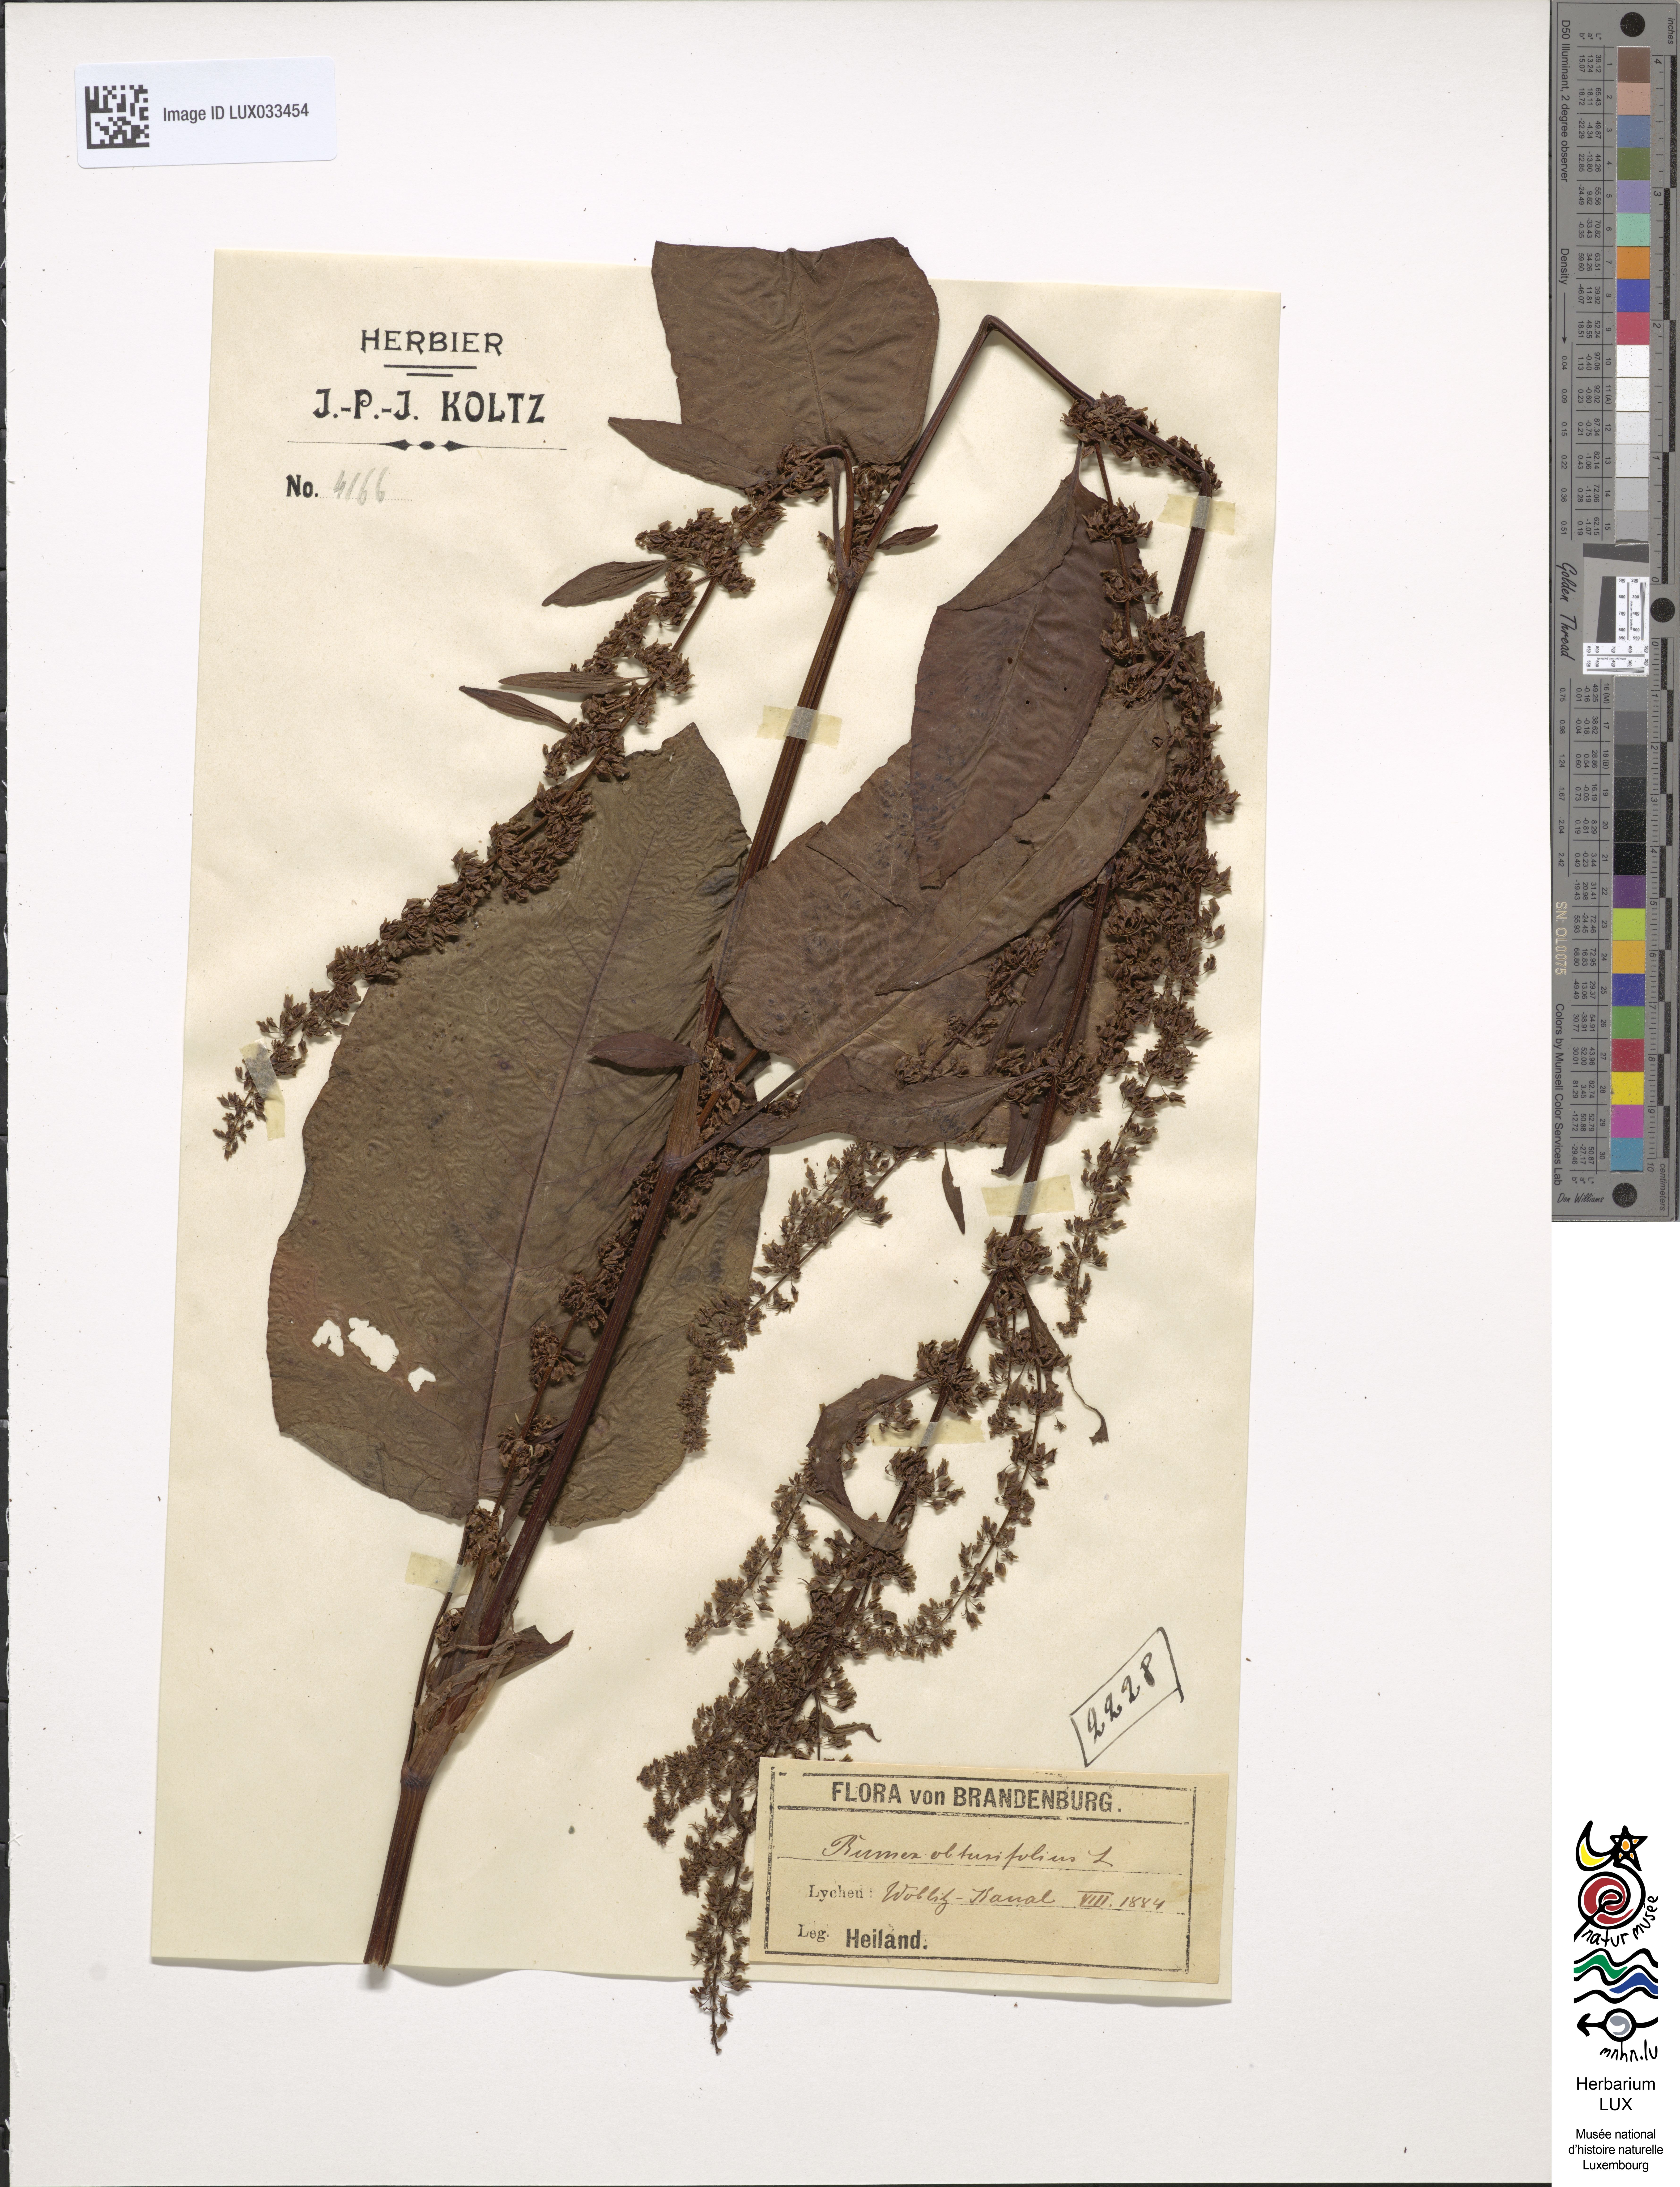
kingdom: Plantae
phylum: Tracheophyta
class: Magnoliopsida
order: Caryophyllales
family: Polygonaceae
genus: Rumex
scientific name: Rumex obtusifolius
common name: Bitter dock
